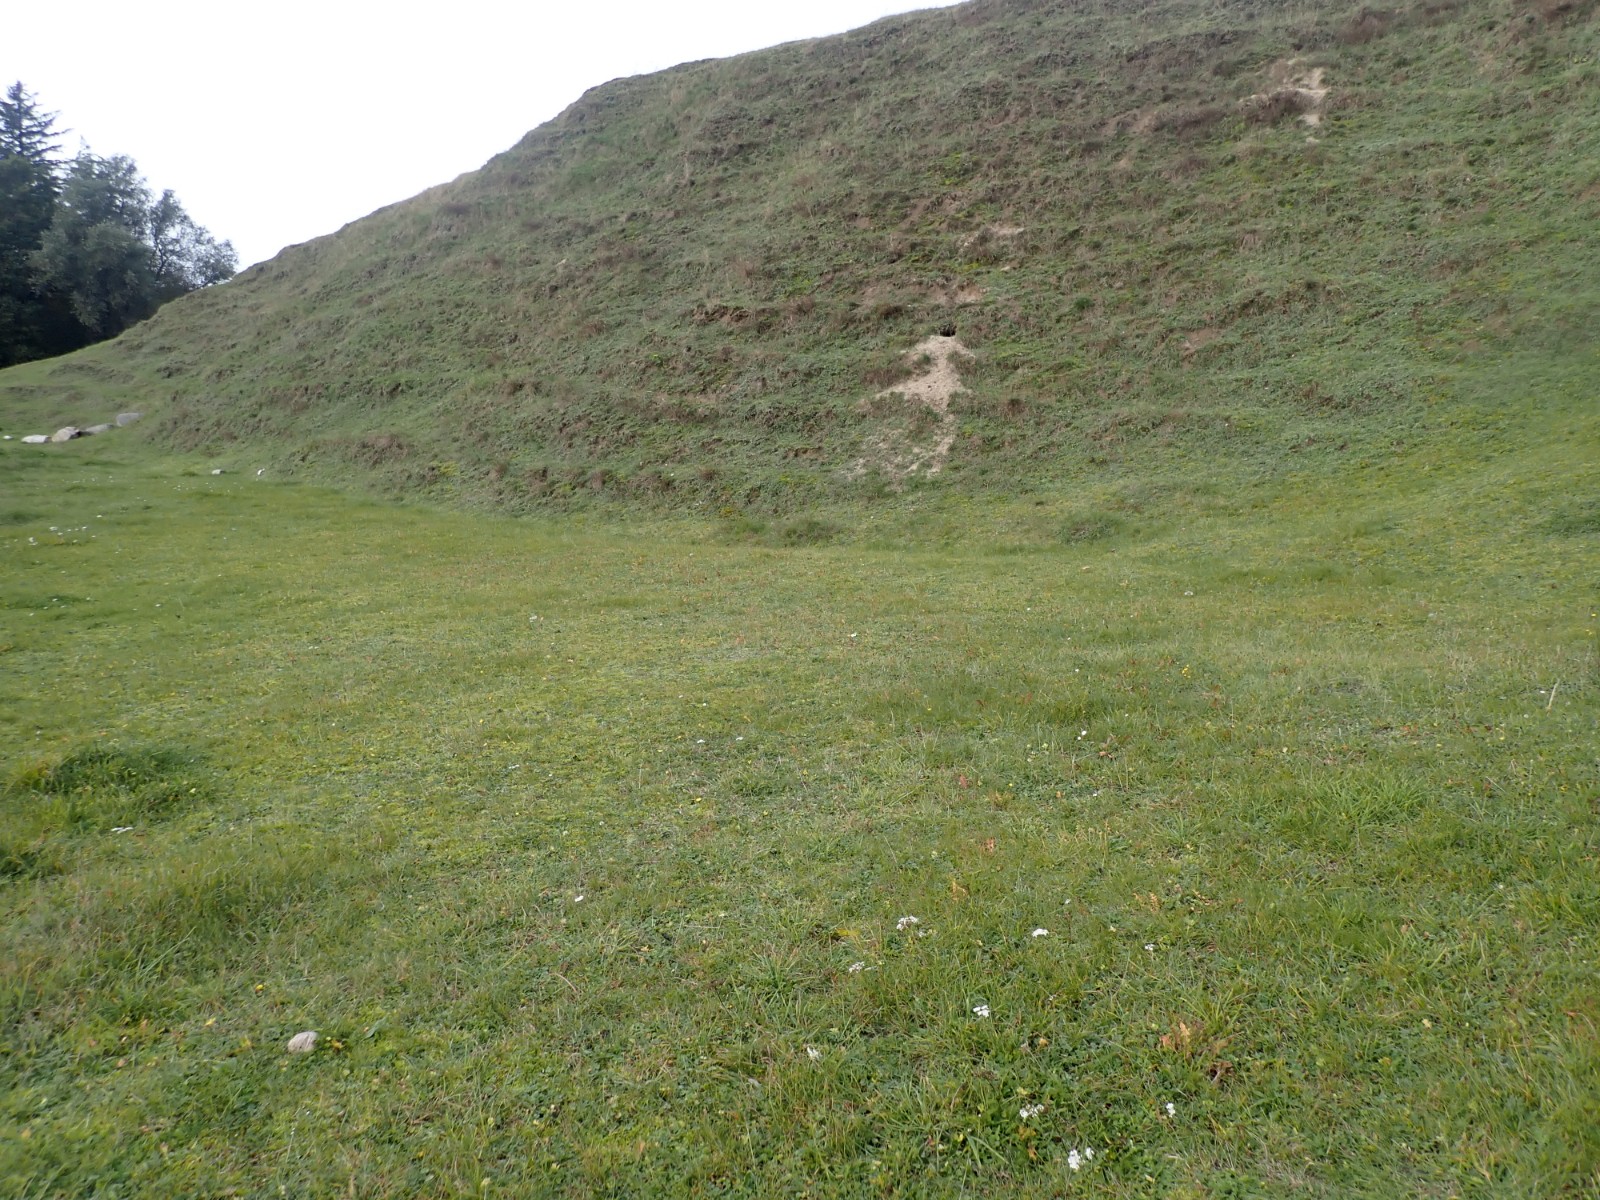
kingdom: Fungi
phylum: Basidiomycota
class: Agaricomycetes
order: Agaricales
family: Hygrophoraceae
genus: Hygrocybe
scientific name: Hygrocybe conica
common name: kegle-vokshat
